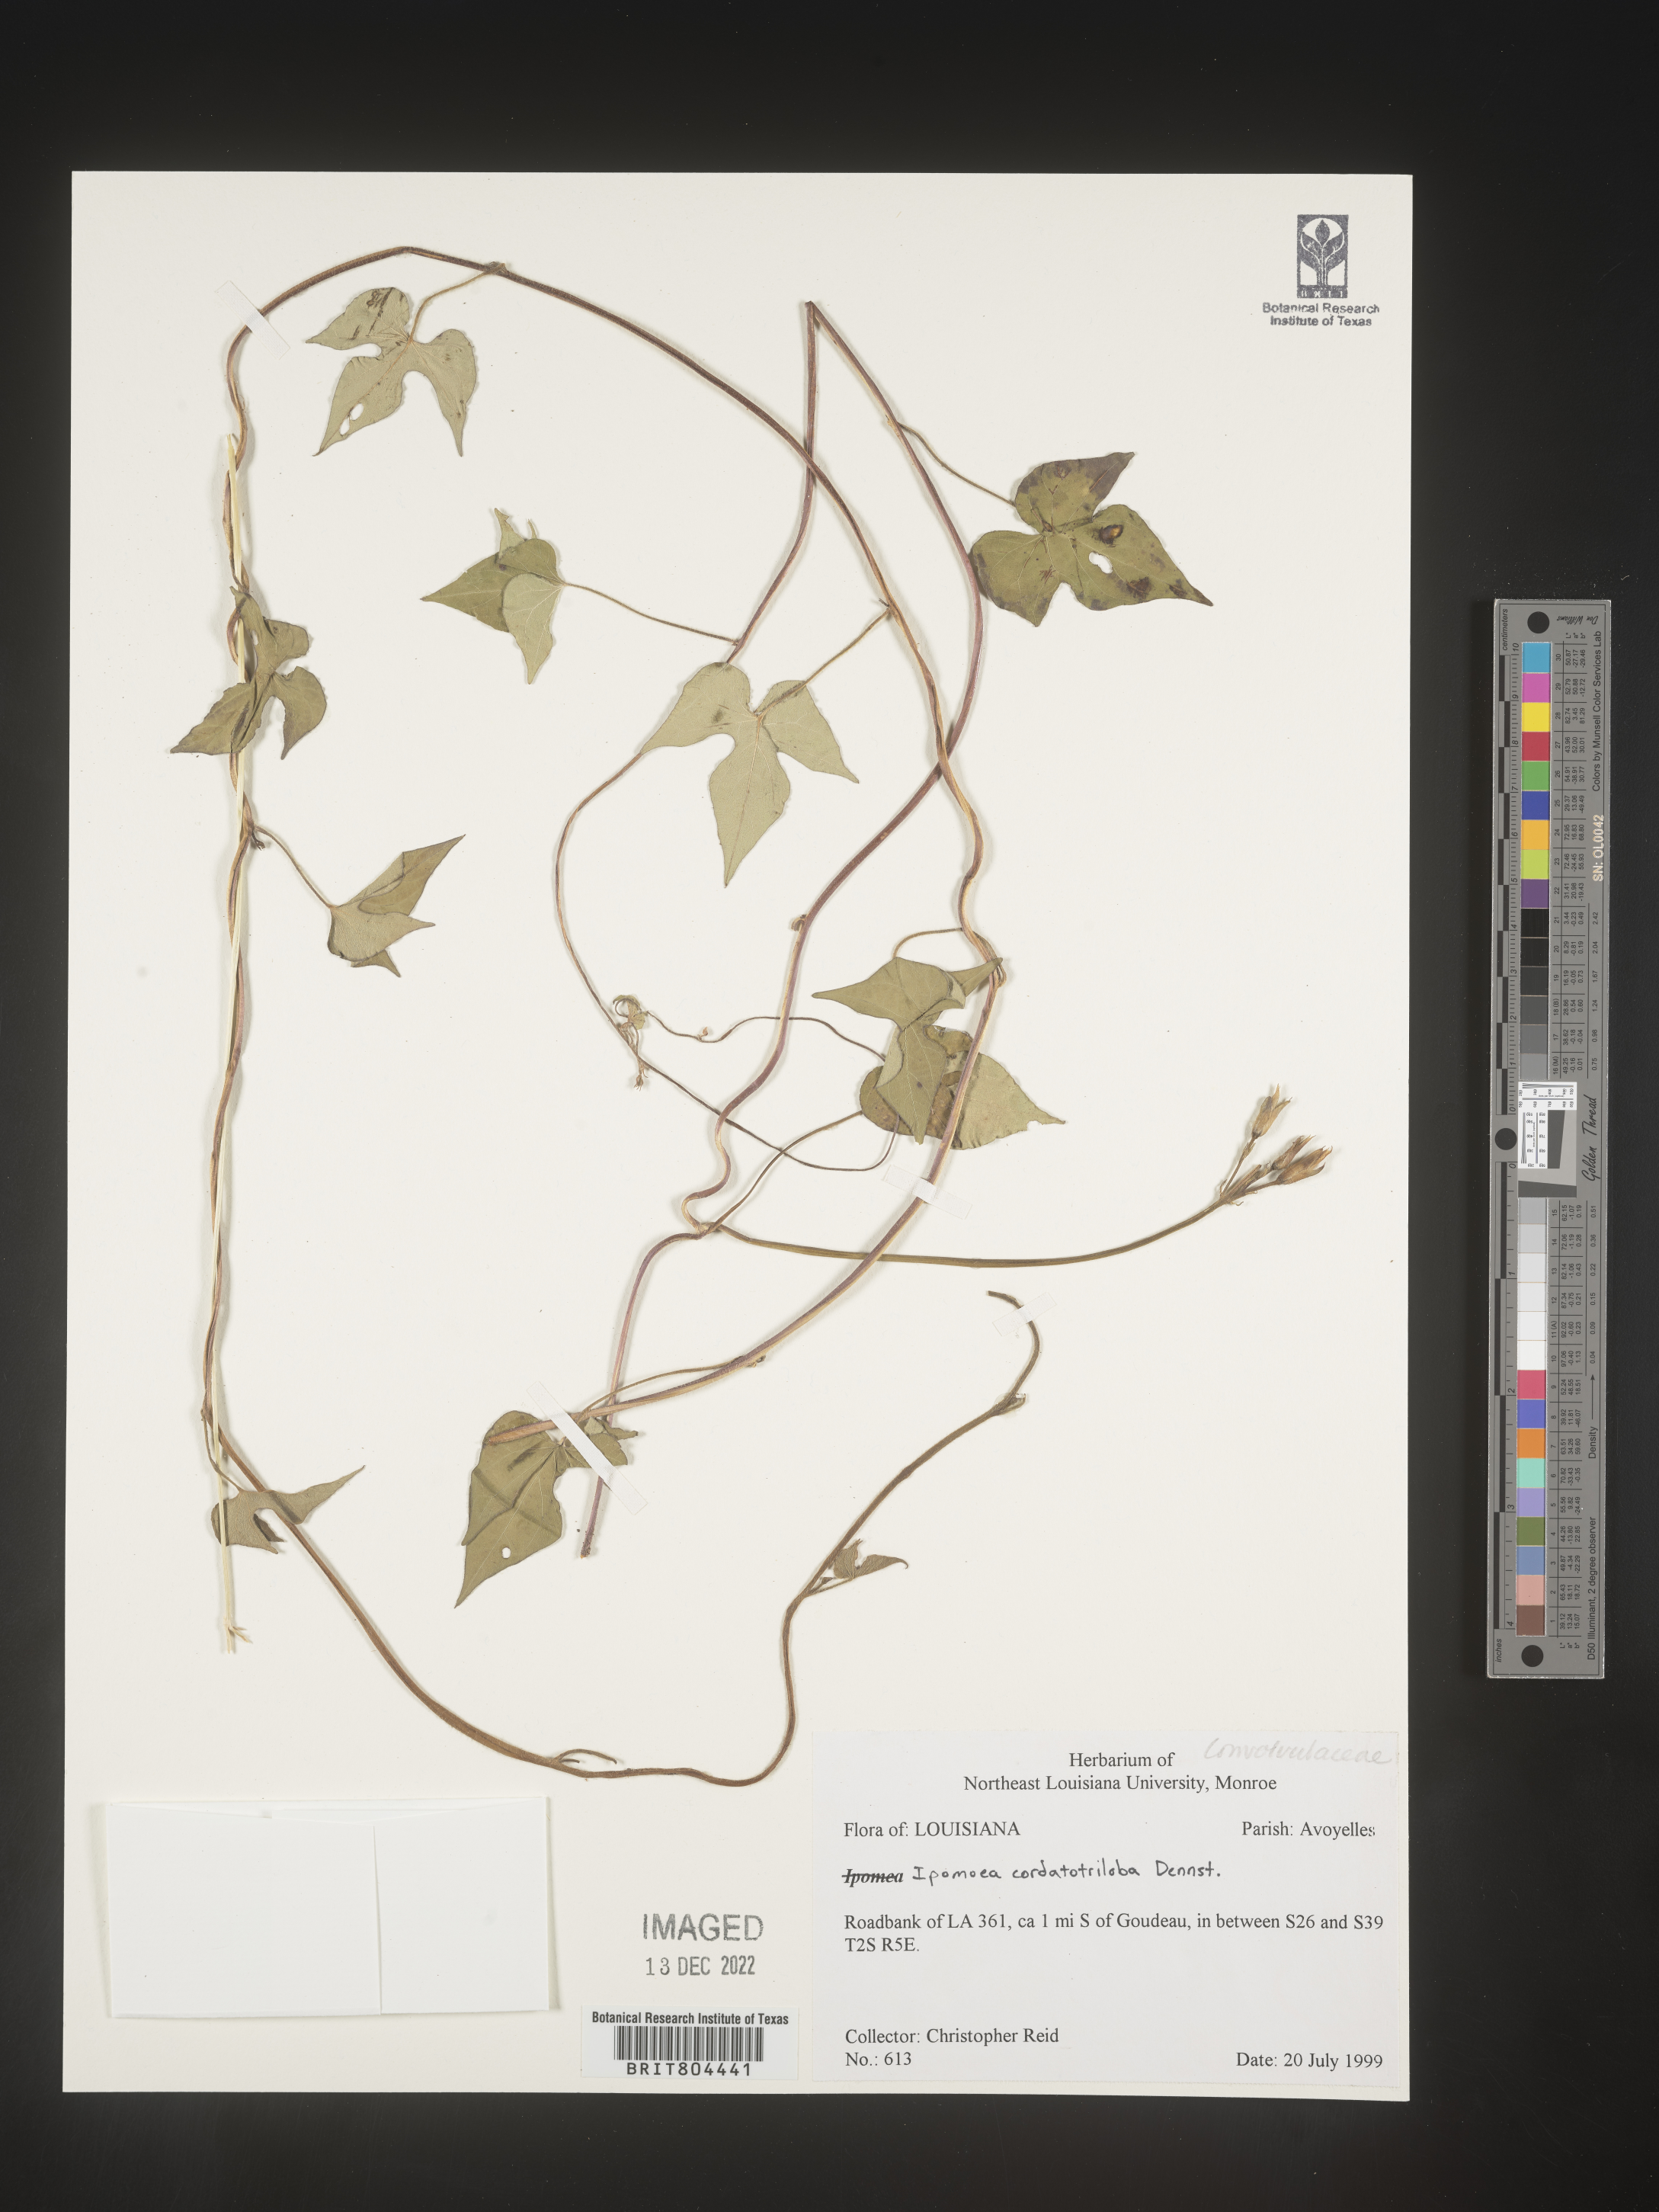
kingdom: Plantae
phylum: Tracheophyta
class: Magnoliopsida
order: Solanales
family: Convolvulaceae
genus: Ipomoea
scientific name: Ipomoea cordatotriloba
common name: Cotton morning glory
